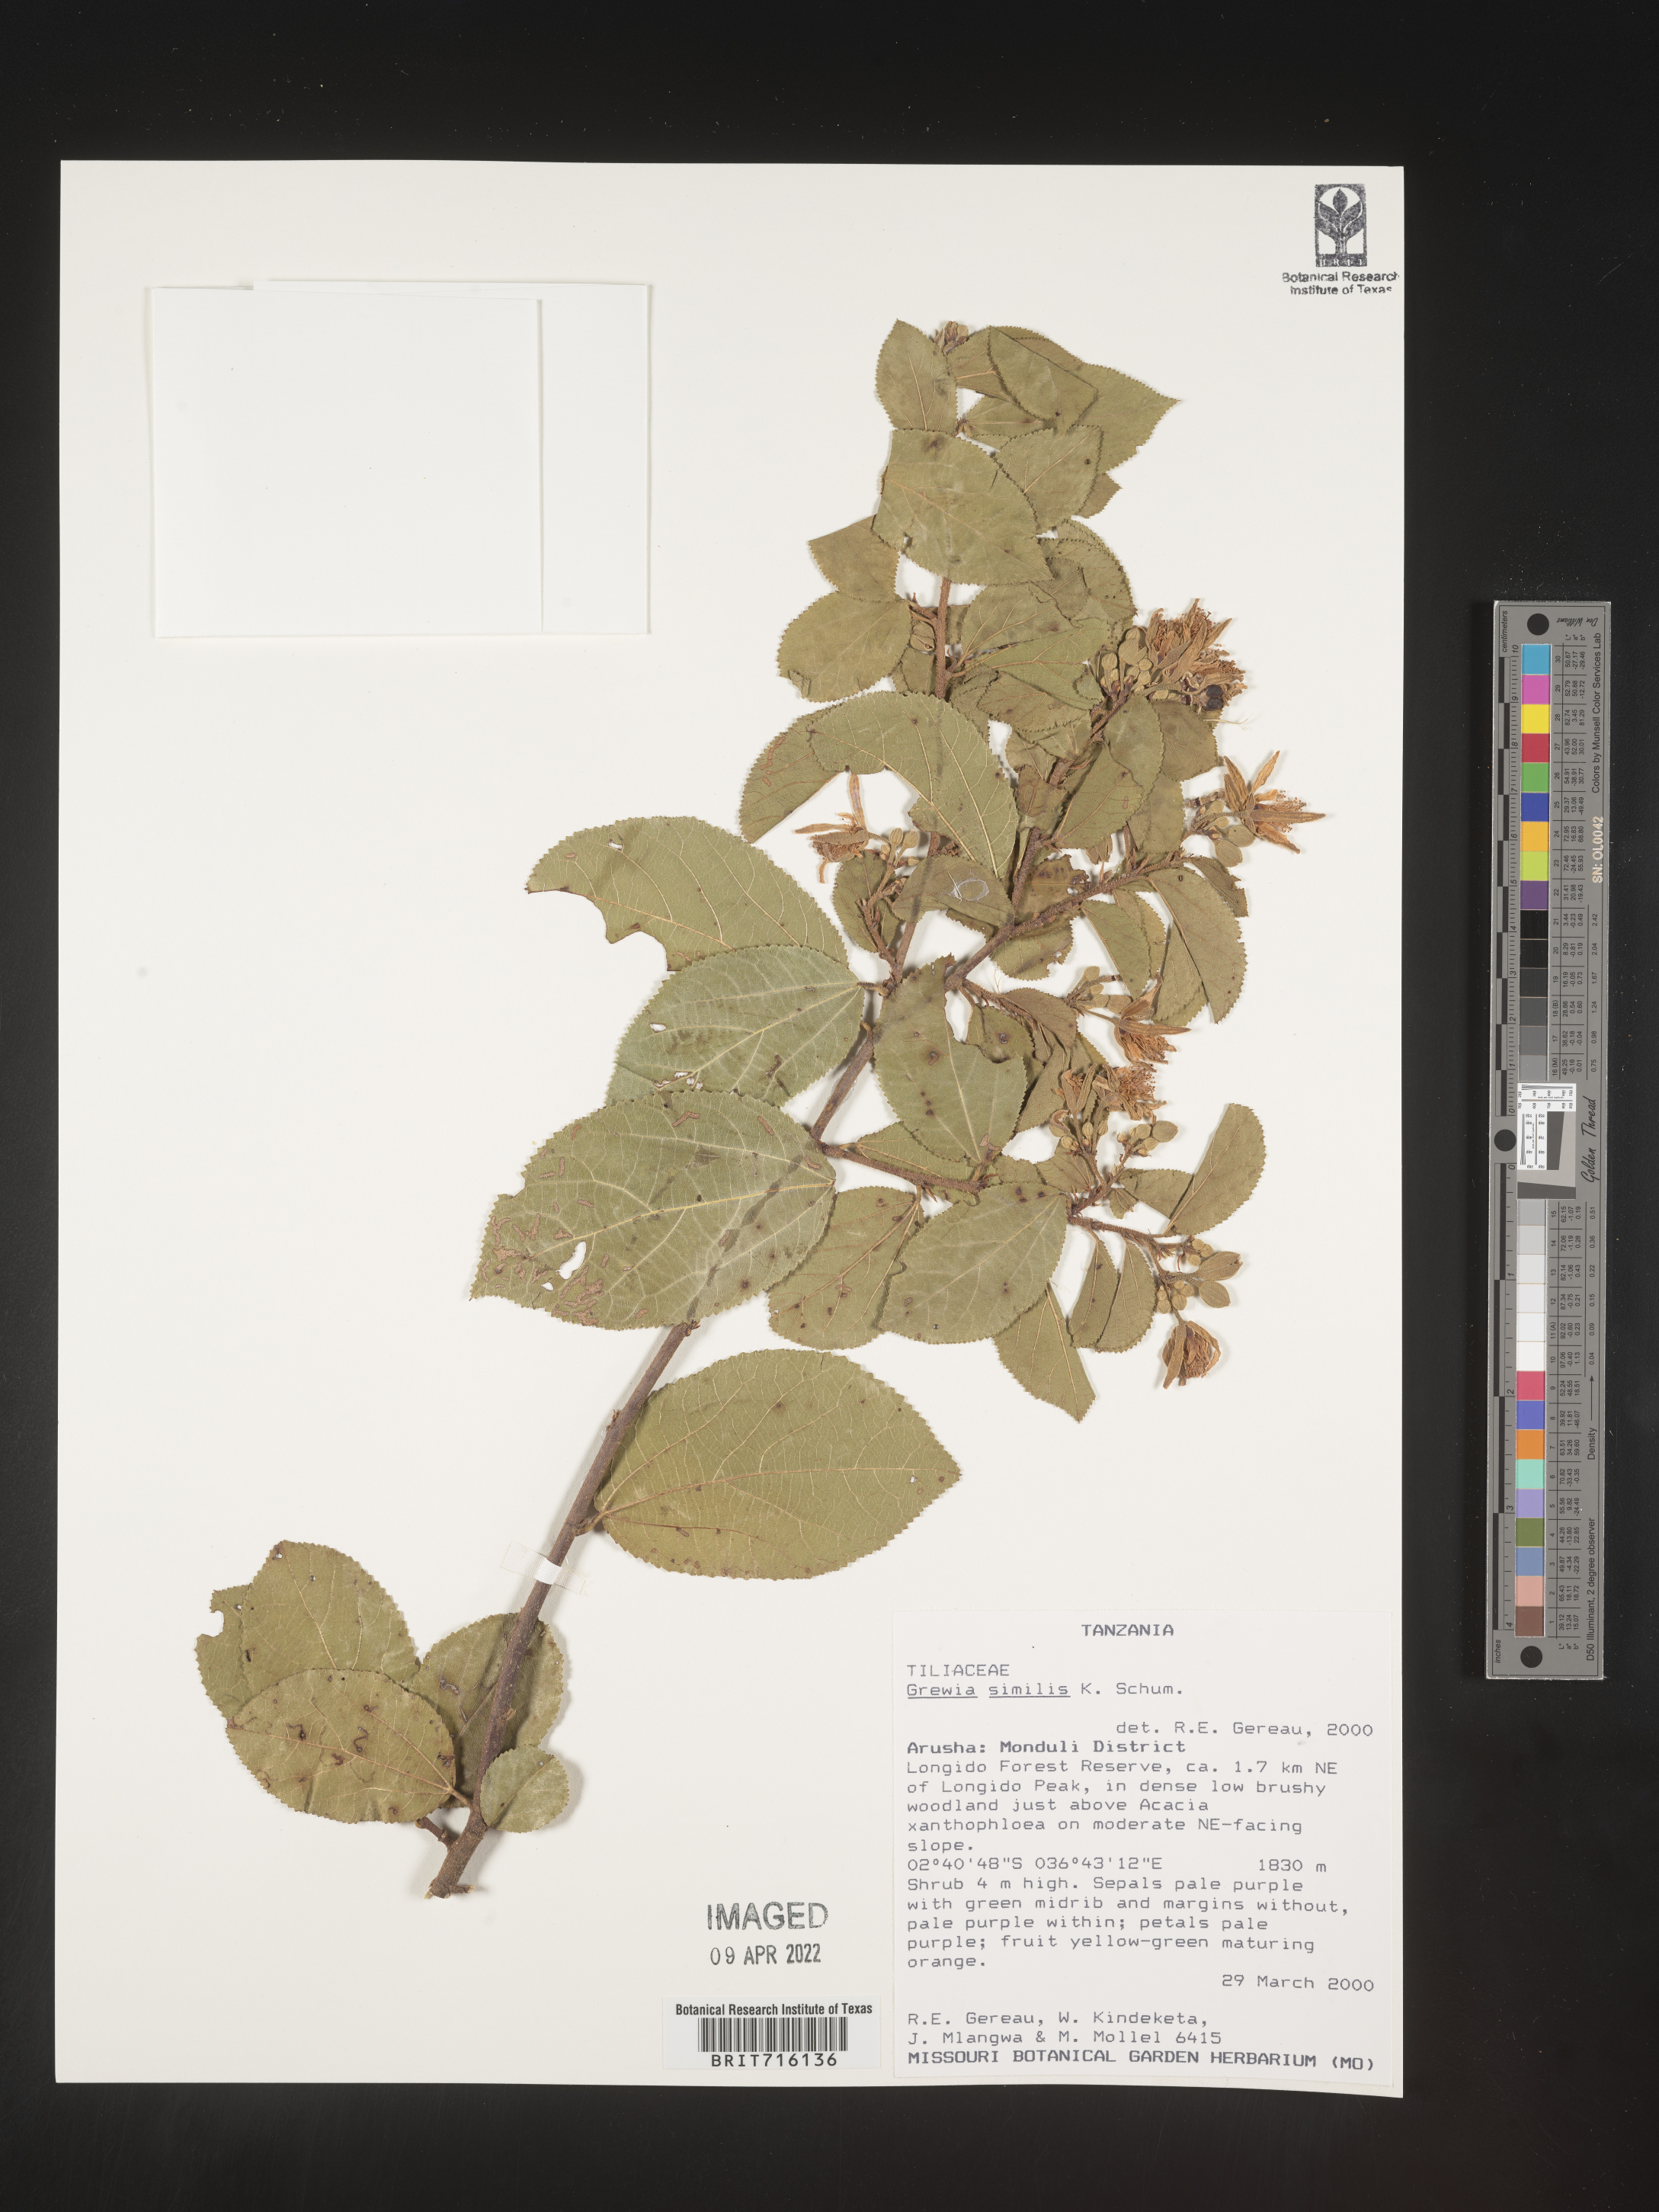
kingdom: Plantae
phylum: Tracheophyta
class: Magnoliopsida
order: Malvales
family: Malvaceae
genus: Grewia
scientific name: Grewia
